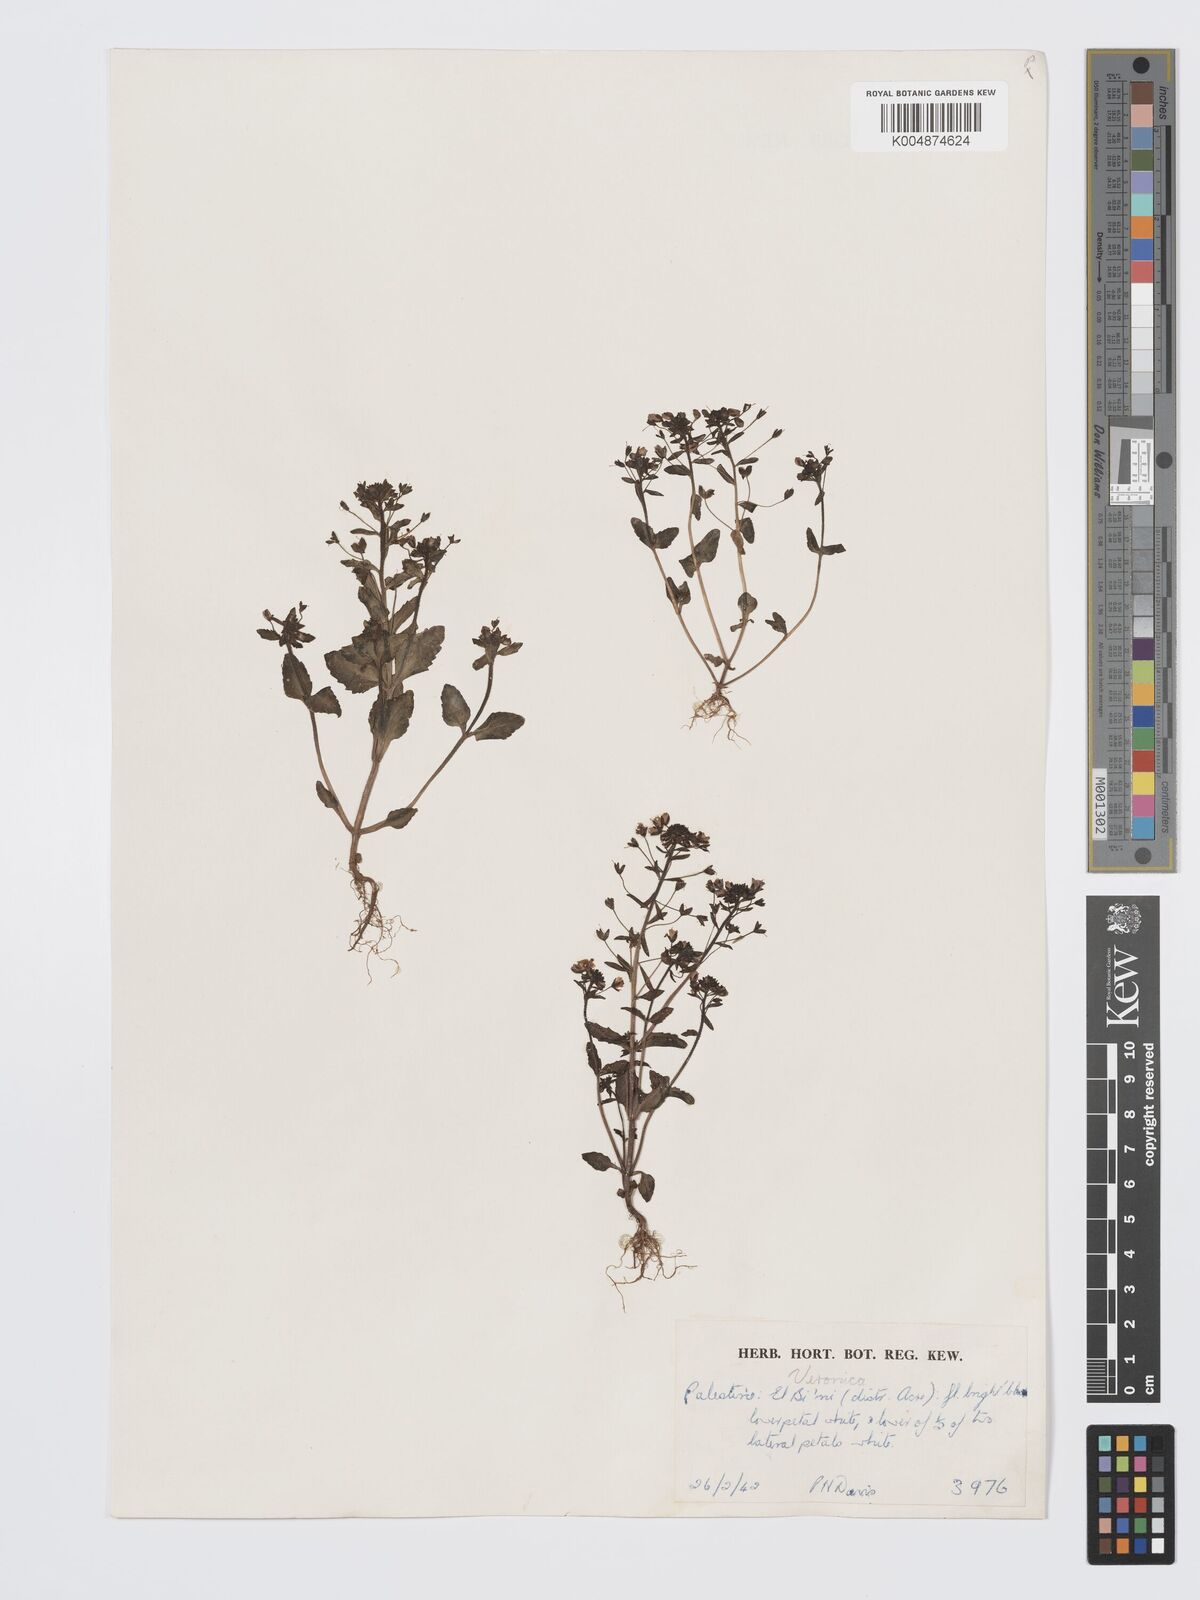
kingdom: Plantae
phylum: Tracheophyta
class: Magnoliopsida
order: Lamiales
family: Plantaginaceae
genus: Veronica
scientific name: Veronica
